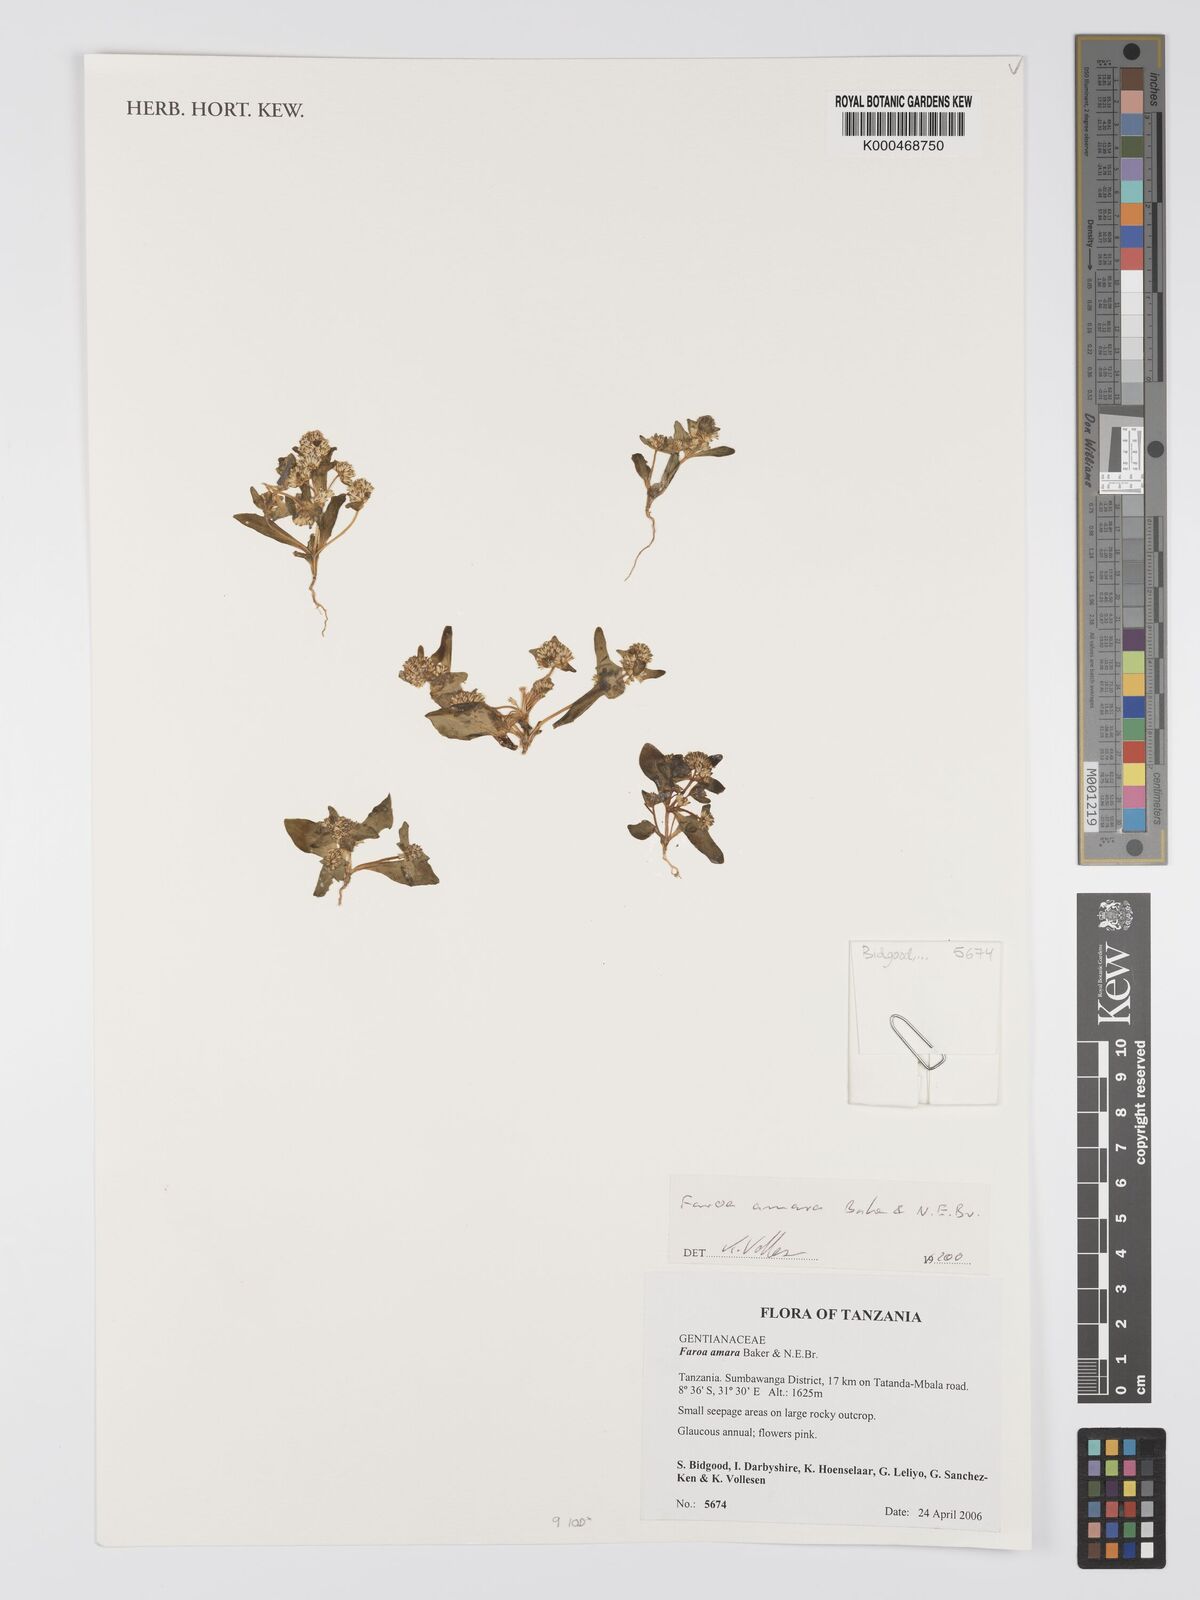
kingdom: Plantae
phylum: Tracheophyta
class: Magnoliopsida
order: Gentianales
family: Gentianaceae
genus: Faroa
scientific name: Faroa amara
